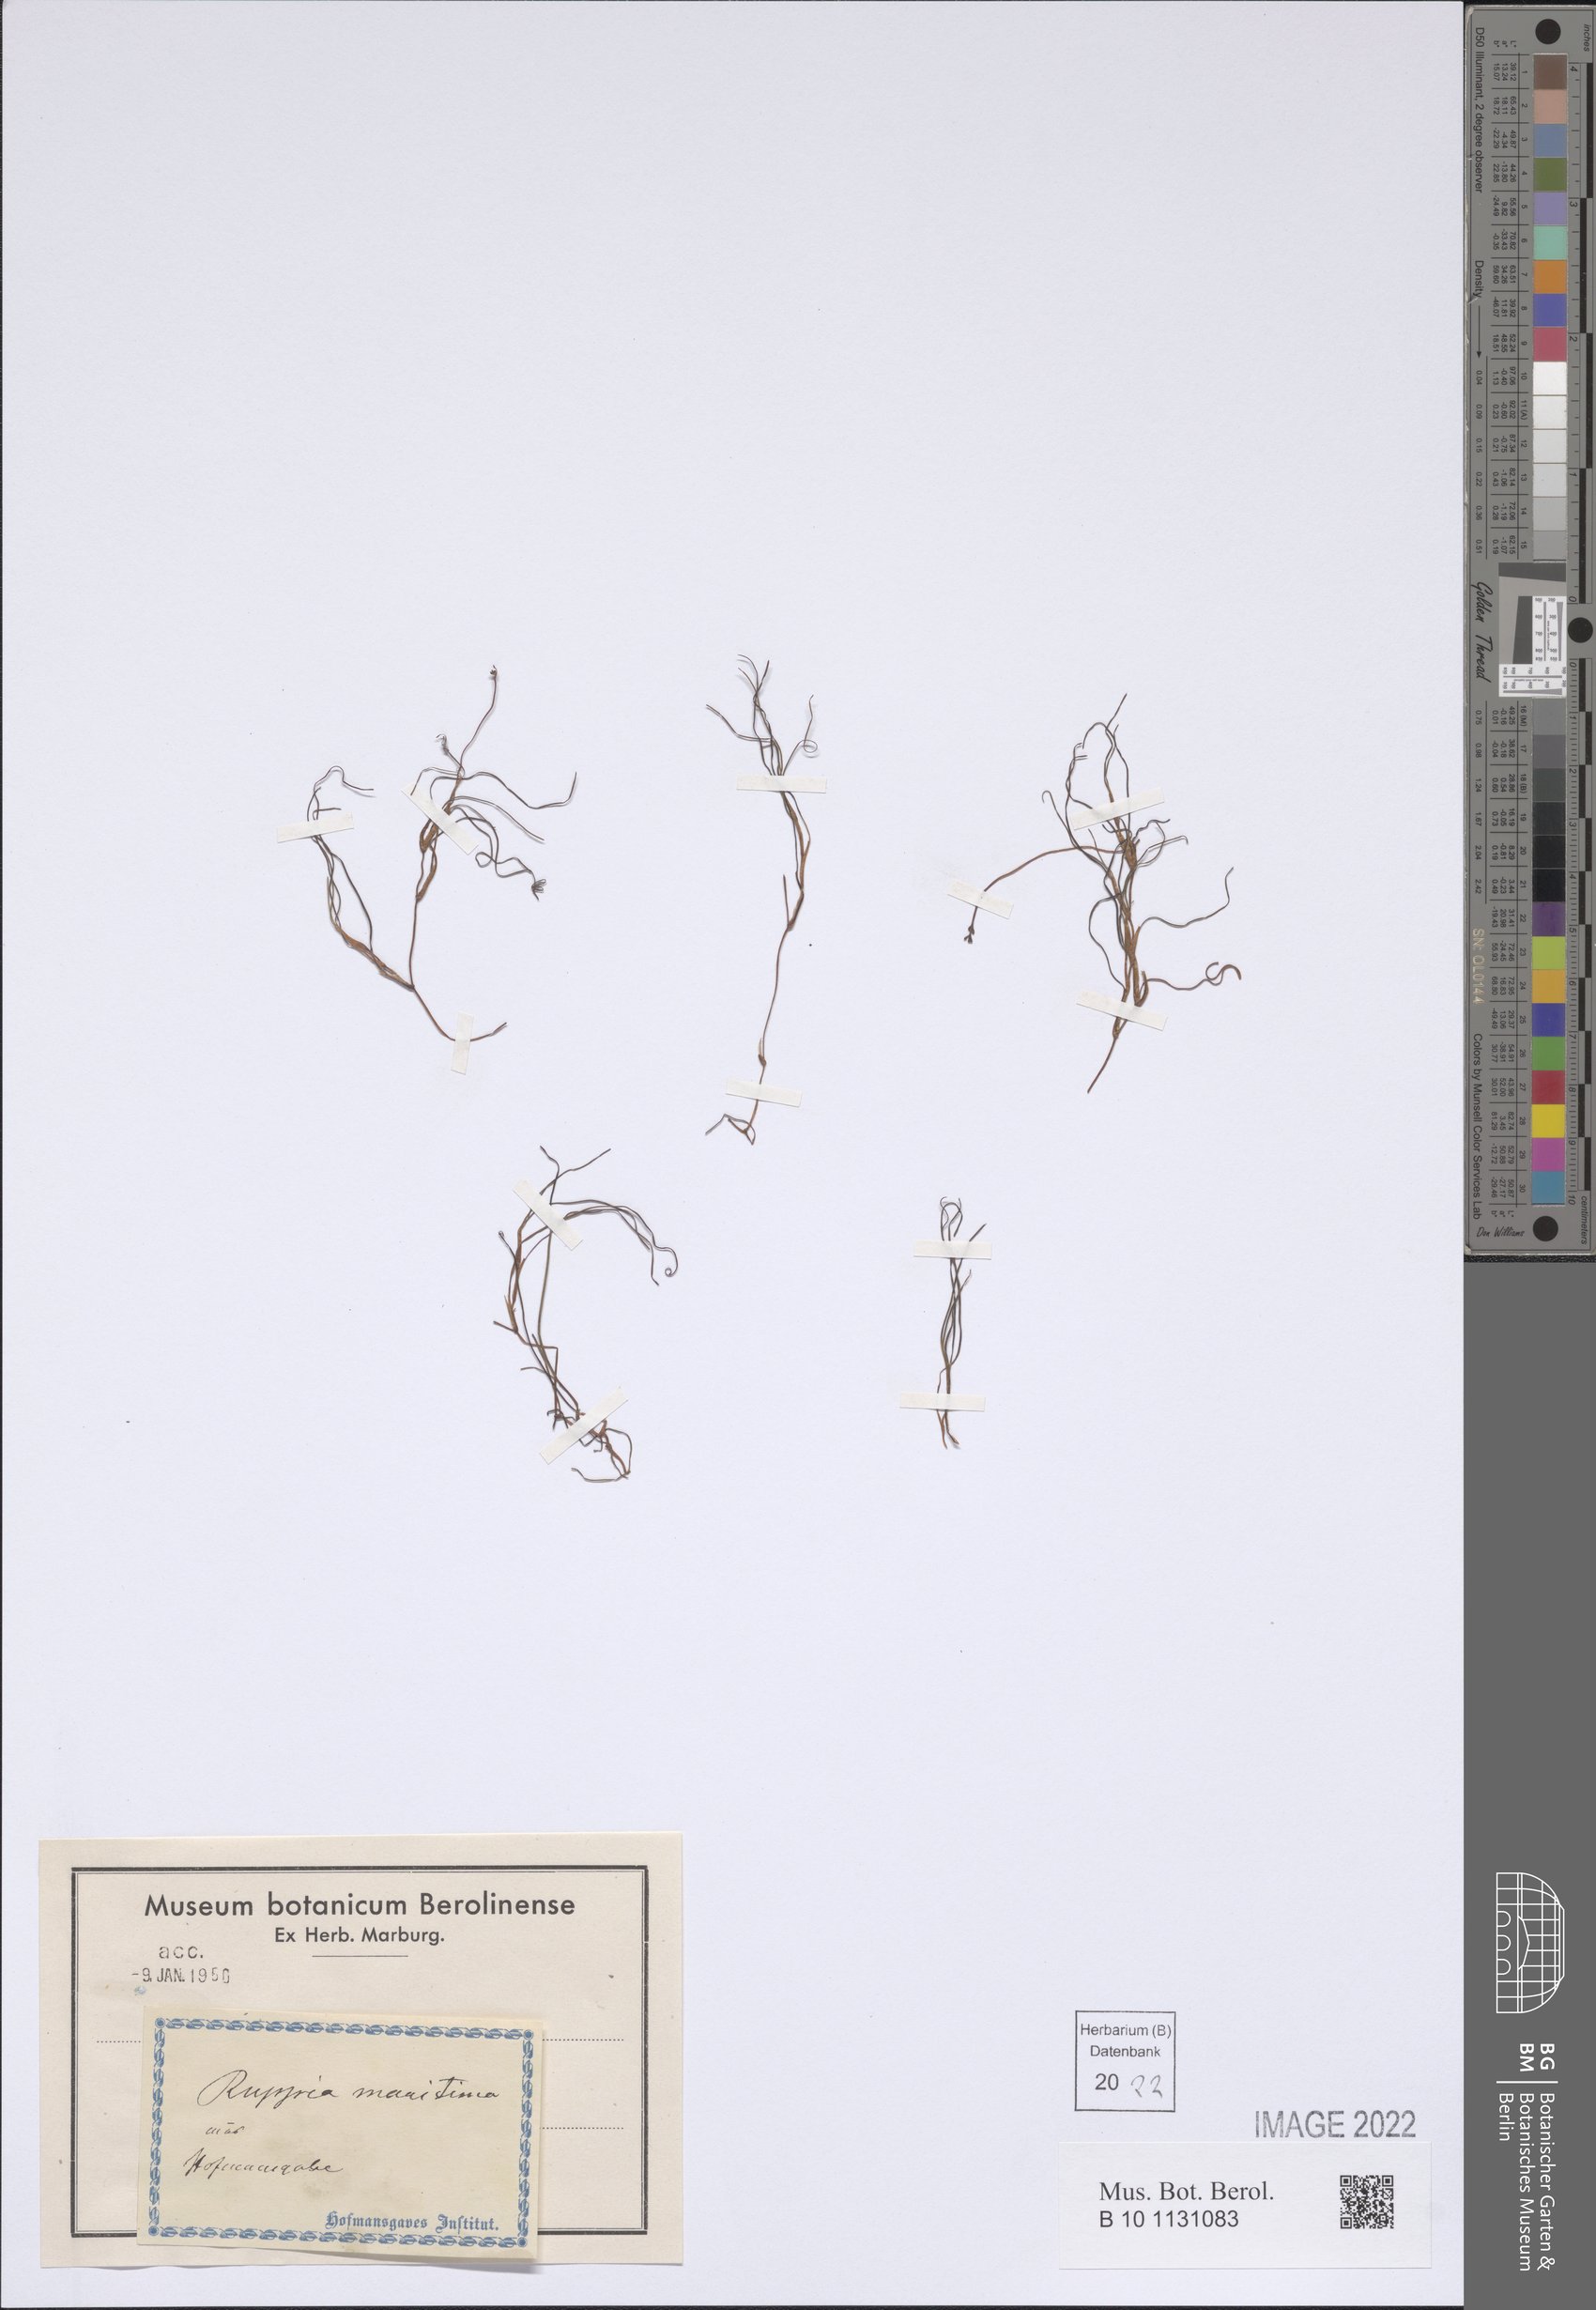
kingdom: Plantae
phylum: Tracheophyta
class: Liliopsida
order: Alismatales
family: Ruppiaceae
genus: Ruppia
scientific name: Ruppia maritima
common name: Beaked tasselweed
